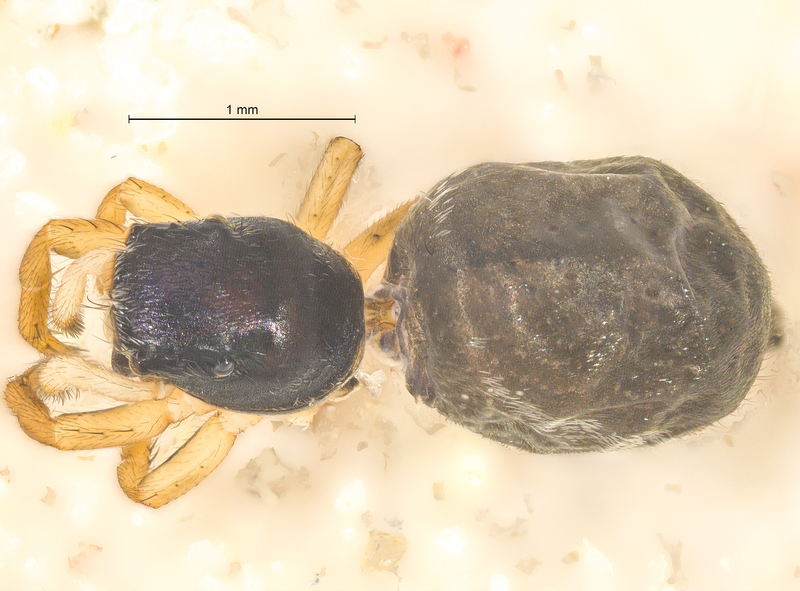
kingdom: Animalia
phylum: Arthropoda
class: Arachnida
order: Araneae
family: Salticidae
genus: Heliophanus
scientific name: Heliophanus dampfi
